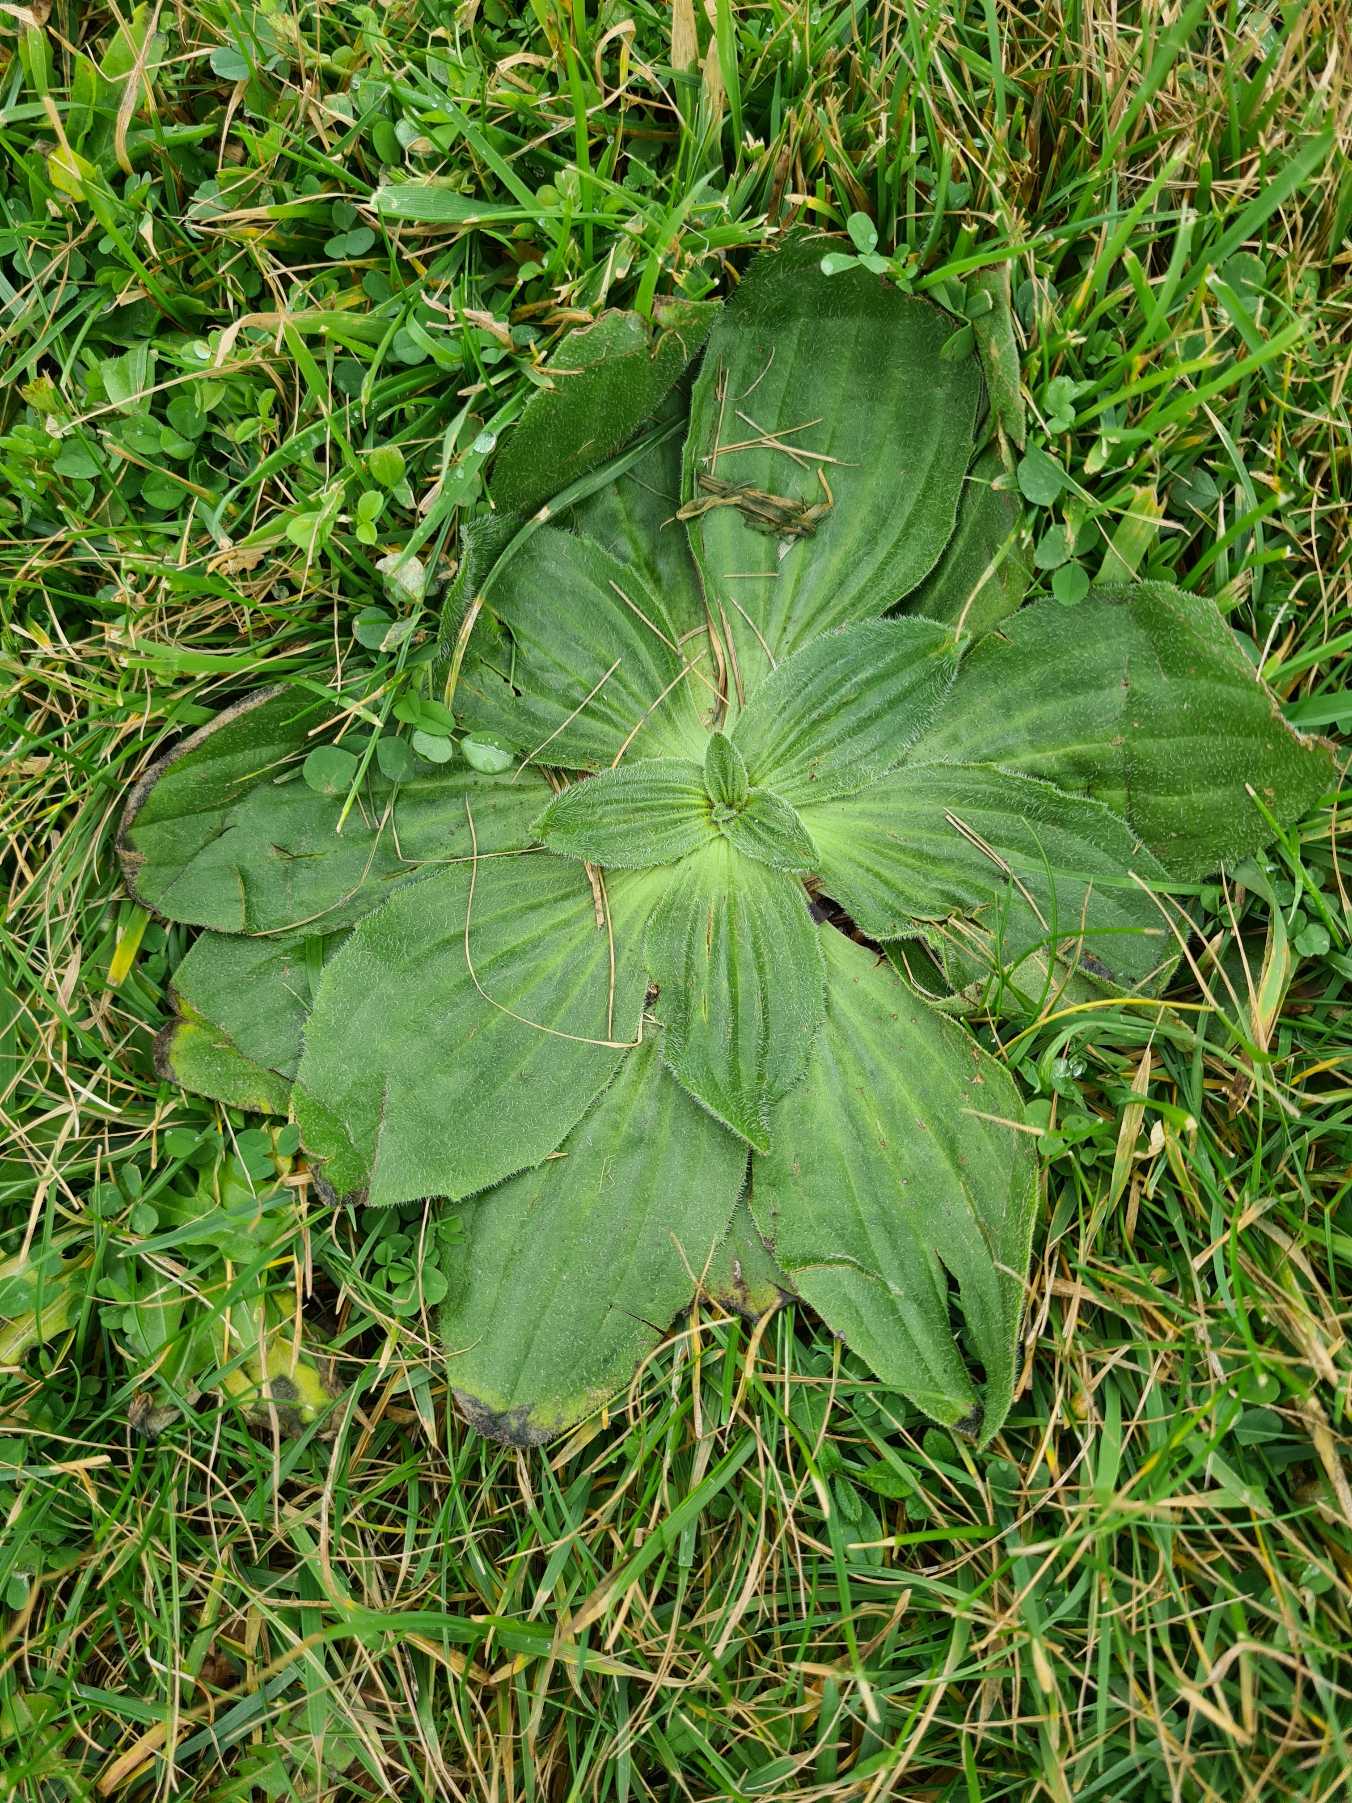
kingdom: Plantae
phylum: Tracheophyta
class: Magnoliopsida
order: Lamiales
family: Plantaginaceae
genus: Plantago
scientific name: Plantago media
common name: Dunet vejbred
